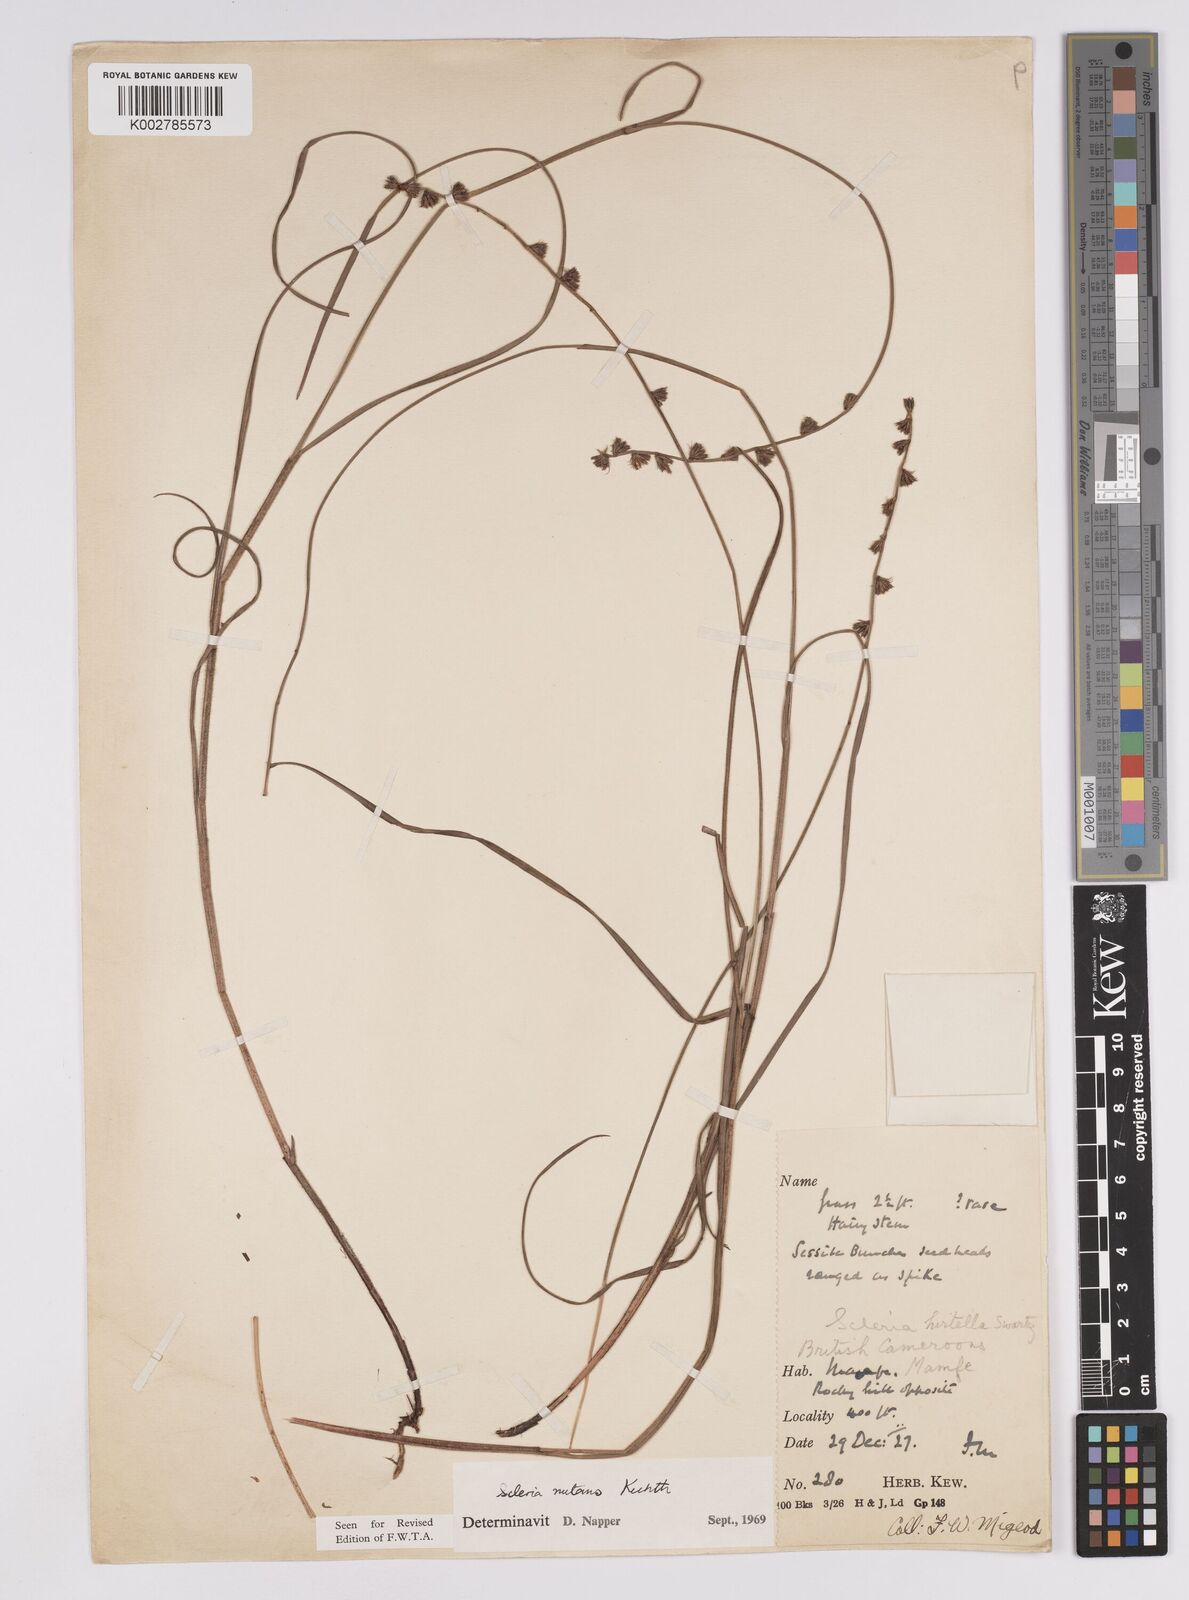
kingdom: Plantae
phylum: Tracheophyta
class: Liliopsida
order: Poales
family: Cyperaceae
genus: Scleria
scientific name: Scleria distans
